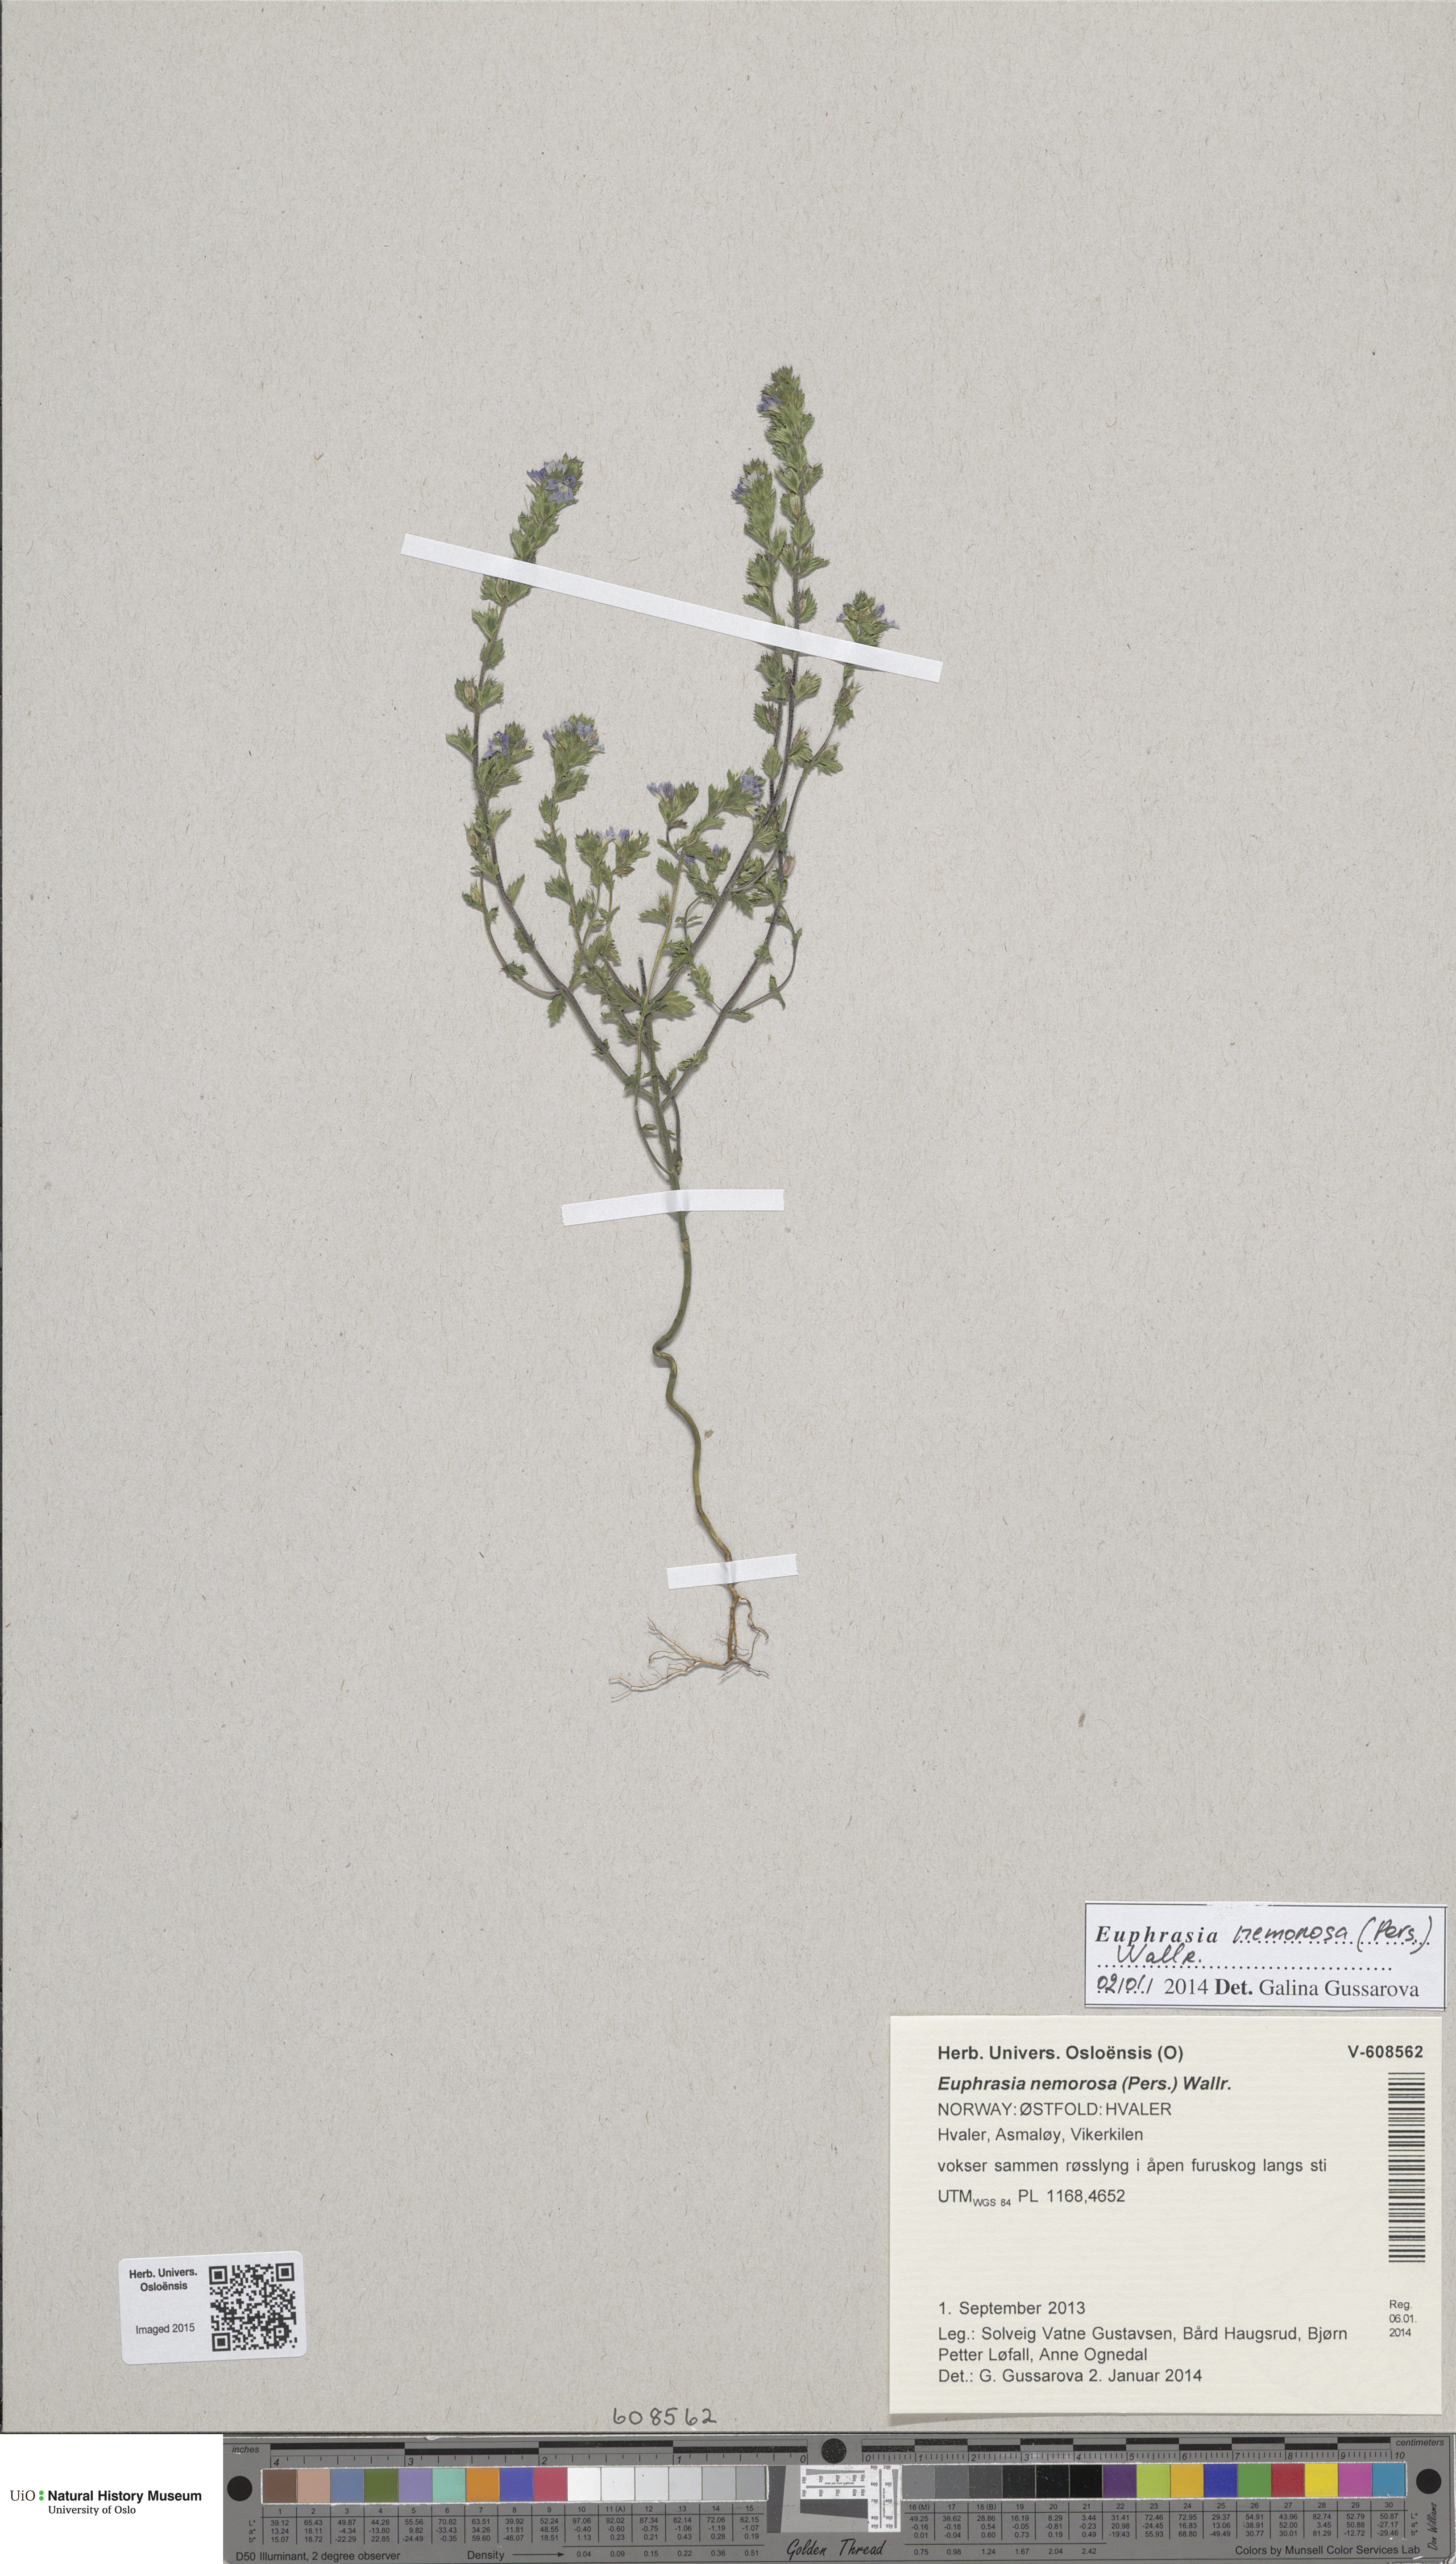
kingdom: Plantae
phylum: Tracheophyta
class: Magnoliopsida
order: Lamiales
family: Orobanchaceae
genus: Euphrasia
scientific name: Euphrasia nemorosa
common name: Common eyebright
